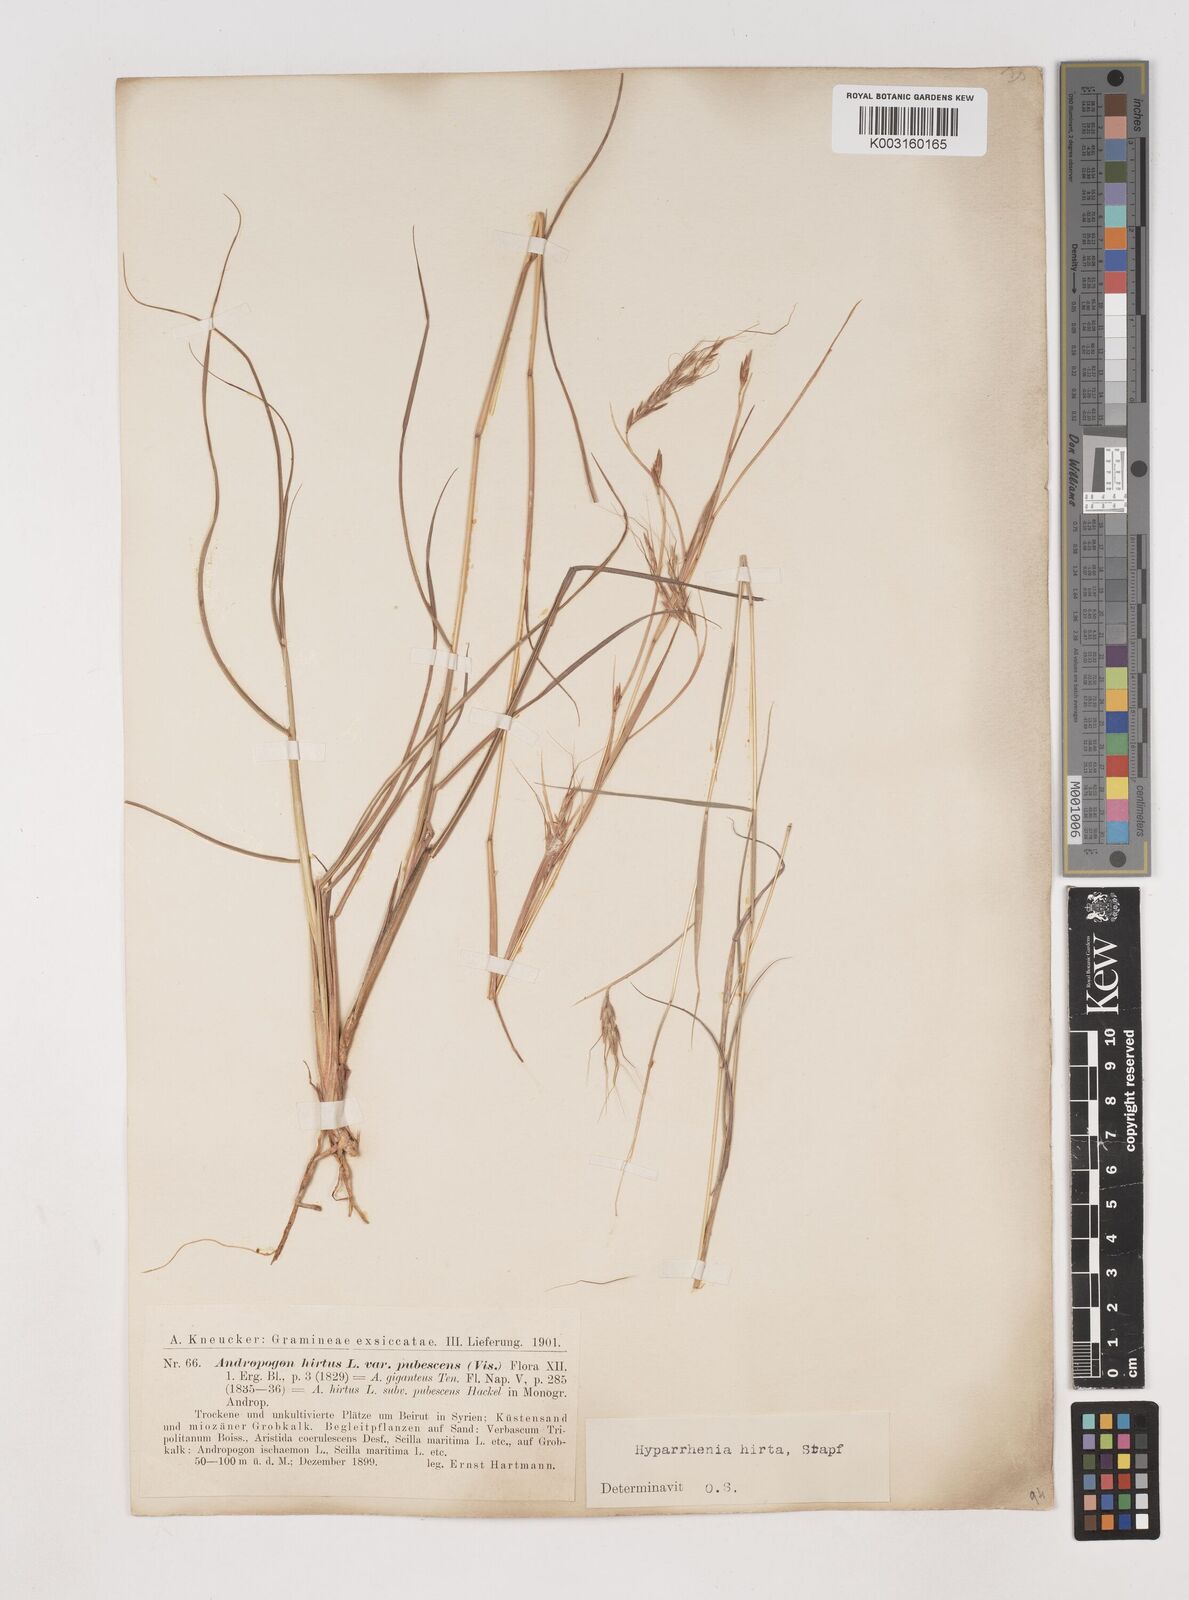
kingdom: Plantae
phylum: Tracheophyta
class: Liliopsida
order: Poales
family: Poaceae
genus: Hyparrhenia
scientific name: Hyparrhenia hirta
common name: Thatching grass
